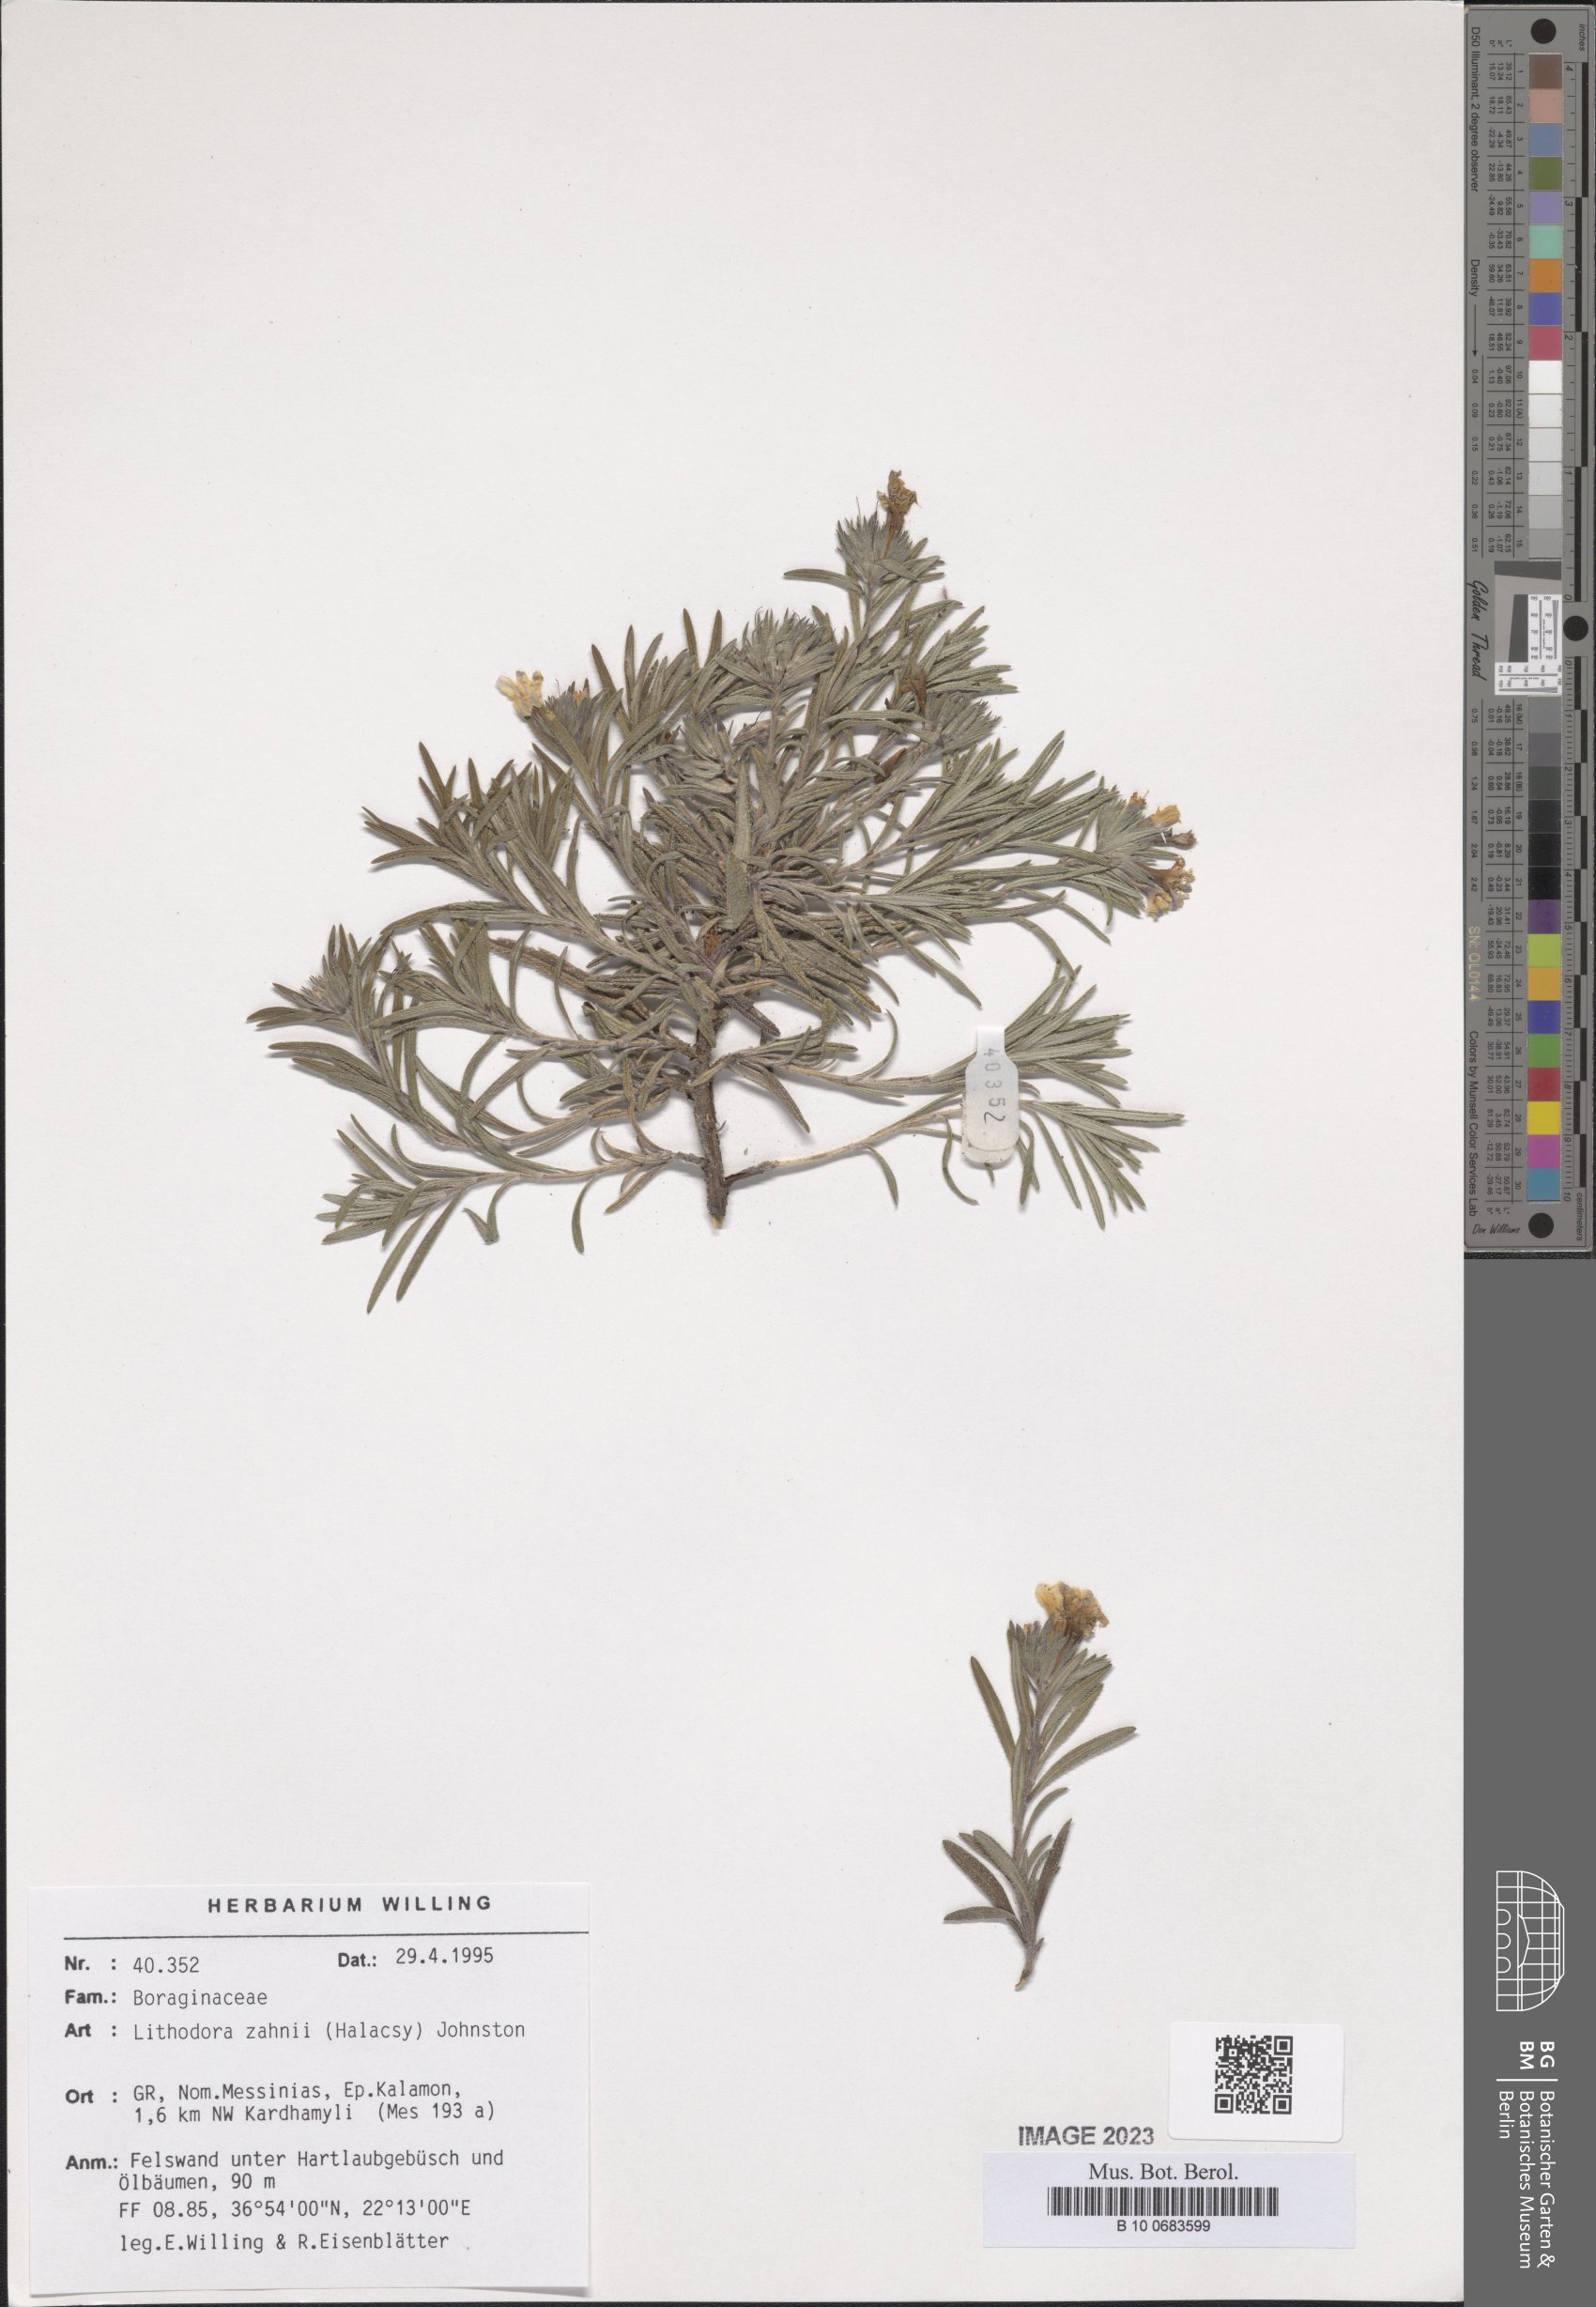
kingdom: Plantae
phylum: Tracheophyta
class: Magnoliopsida
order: Boraginales
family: Boraginaceae
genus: Lithodora
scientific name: Lithodora zahnii
